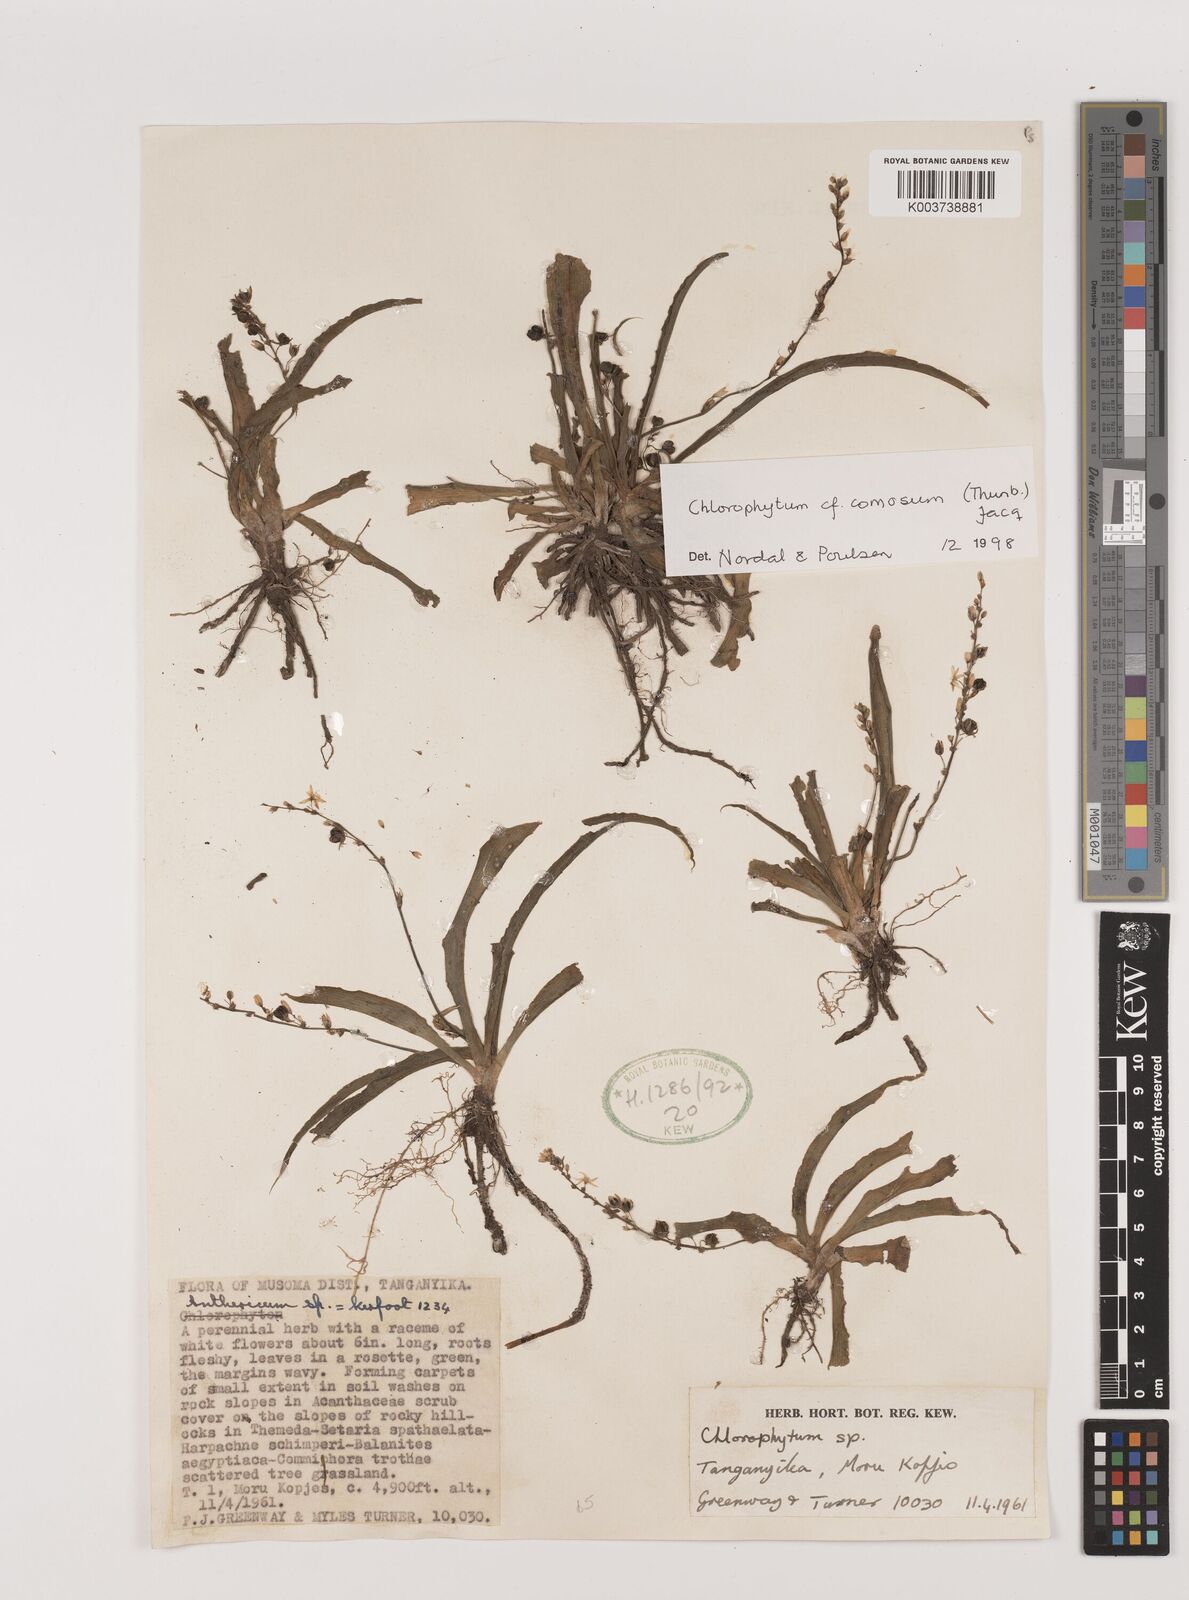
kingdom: Plantae
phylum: Tracheophyta
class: Liliopsida
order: Asparagales
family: Asparagaceae
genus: Chlorophytum
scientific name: Chlorophytum comosum
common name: Spider plant
